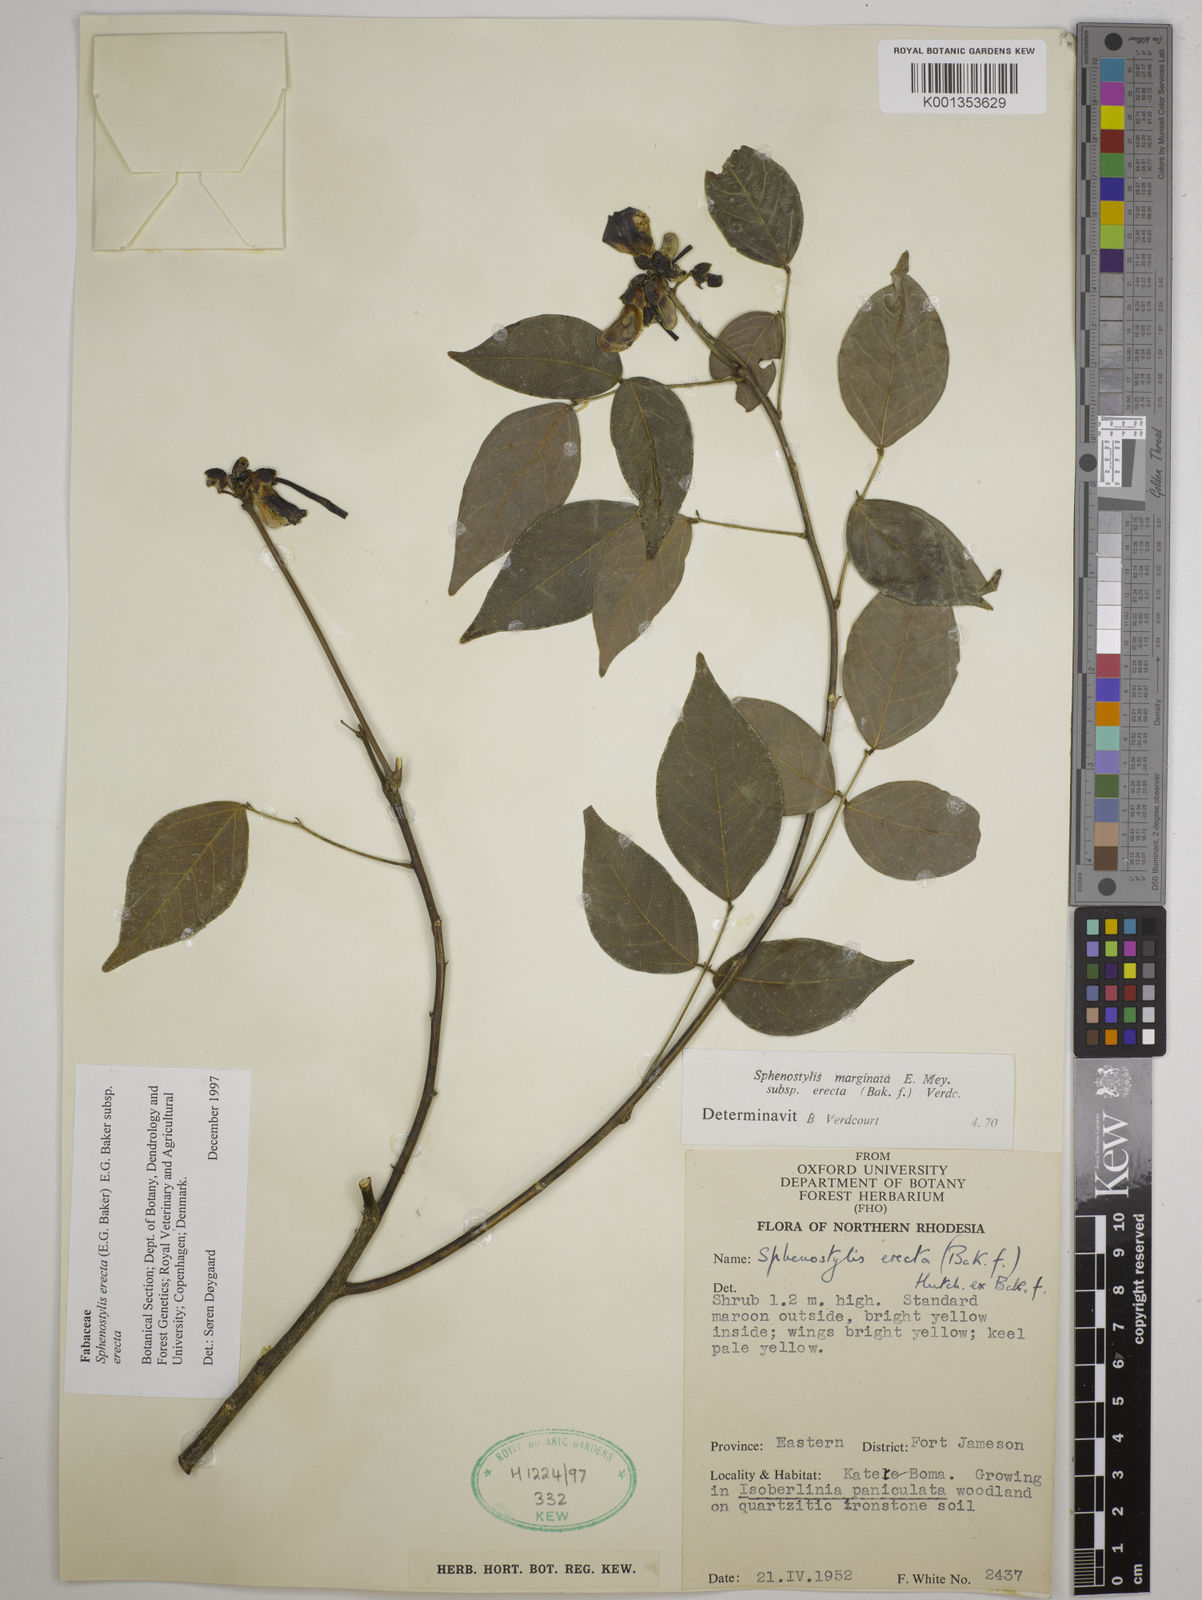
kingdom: Plantae
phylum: Tracheophyta
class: Magnoliopsida
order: Fabales
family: Fabaceae
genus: Sphenostylis
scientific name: Sphenostylis erecta
